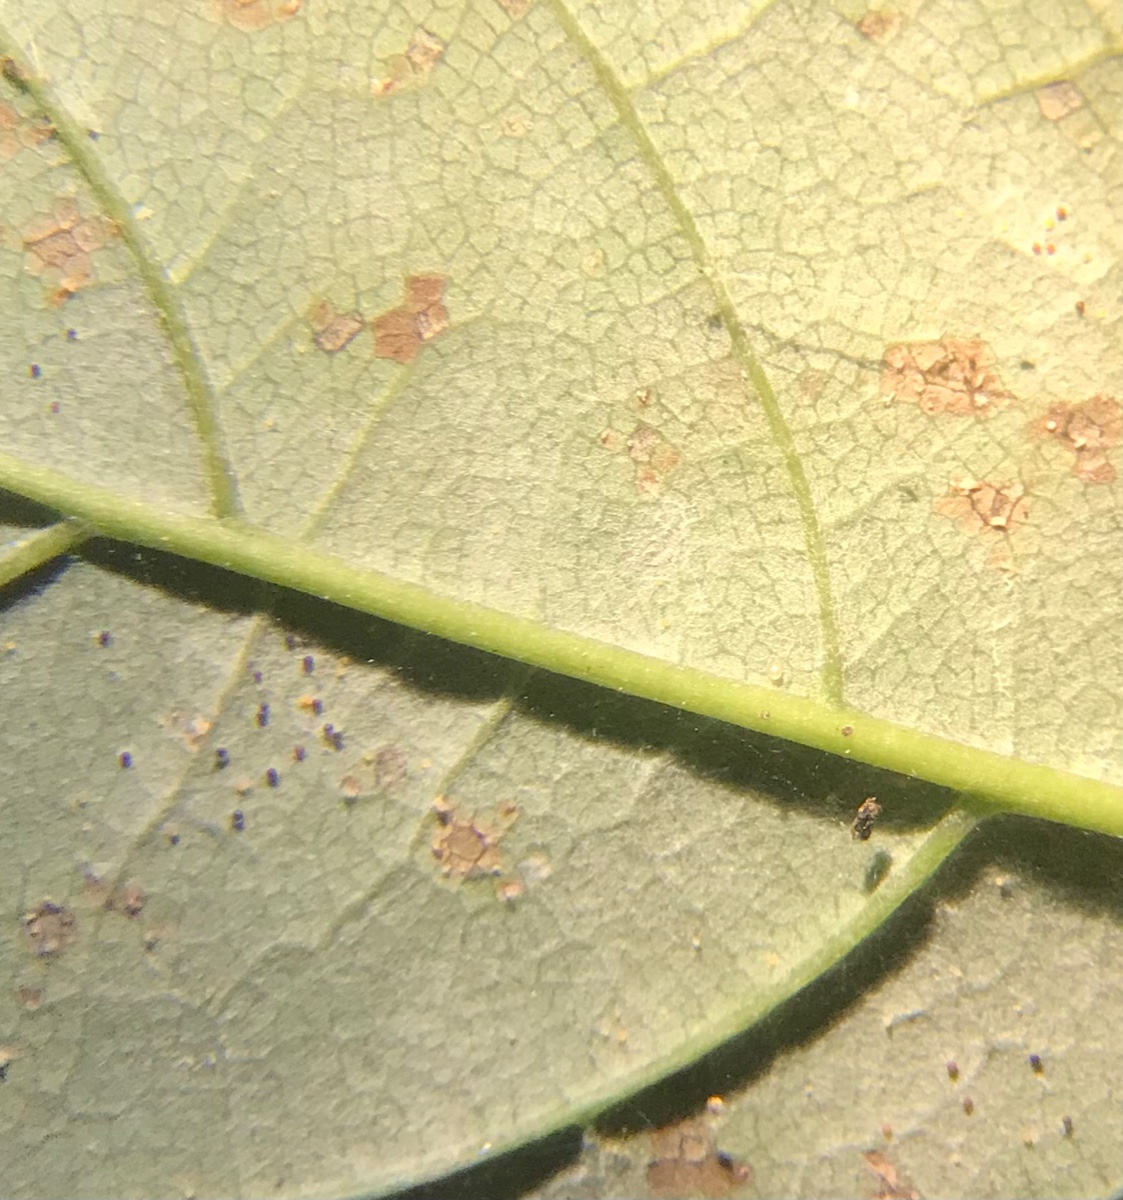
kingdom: Fungi
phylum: Ascomycota
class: Leotiomycetes
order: Helotiales
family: Erysiphaceae
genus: Sawadaea
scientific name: Sawadaea bicornis
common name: Maple mildew
